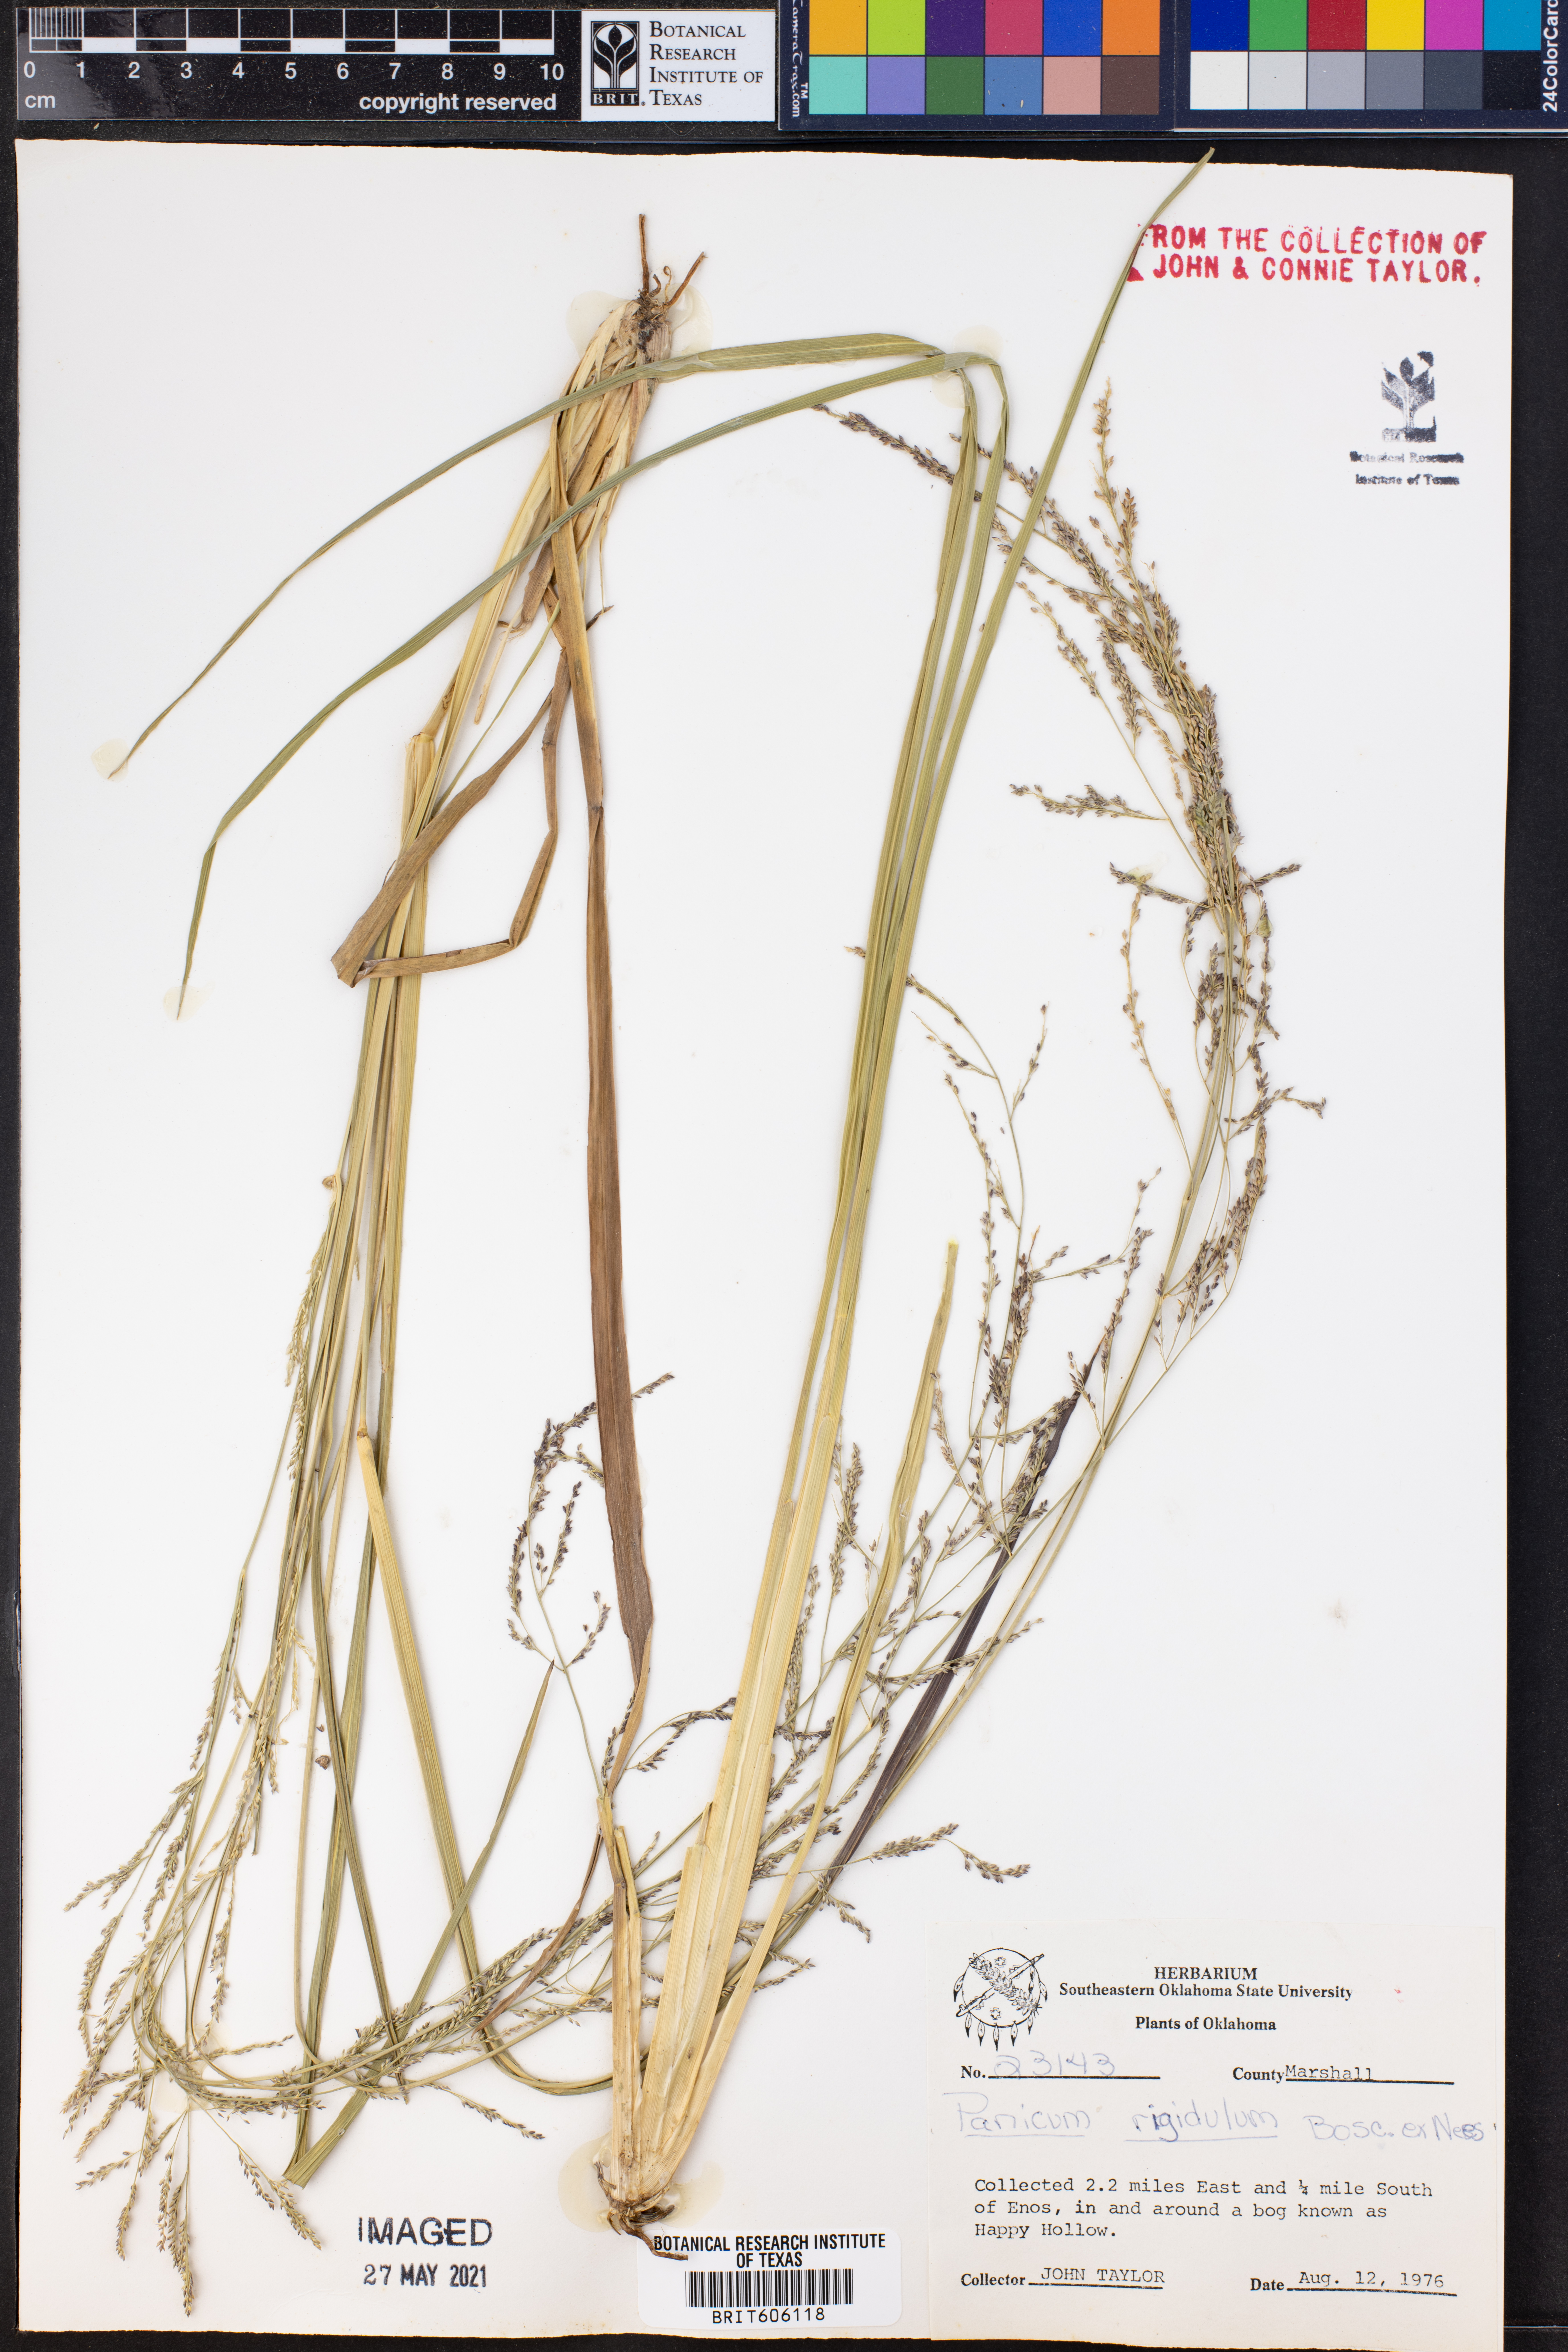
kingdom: Plantae
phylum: Tracheophyta
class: Liliopsida
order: Poales
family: Poaceae
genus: Coleataenia
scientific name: Coleataenia rigidula
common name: Redtop panicgrass
